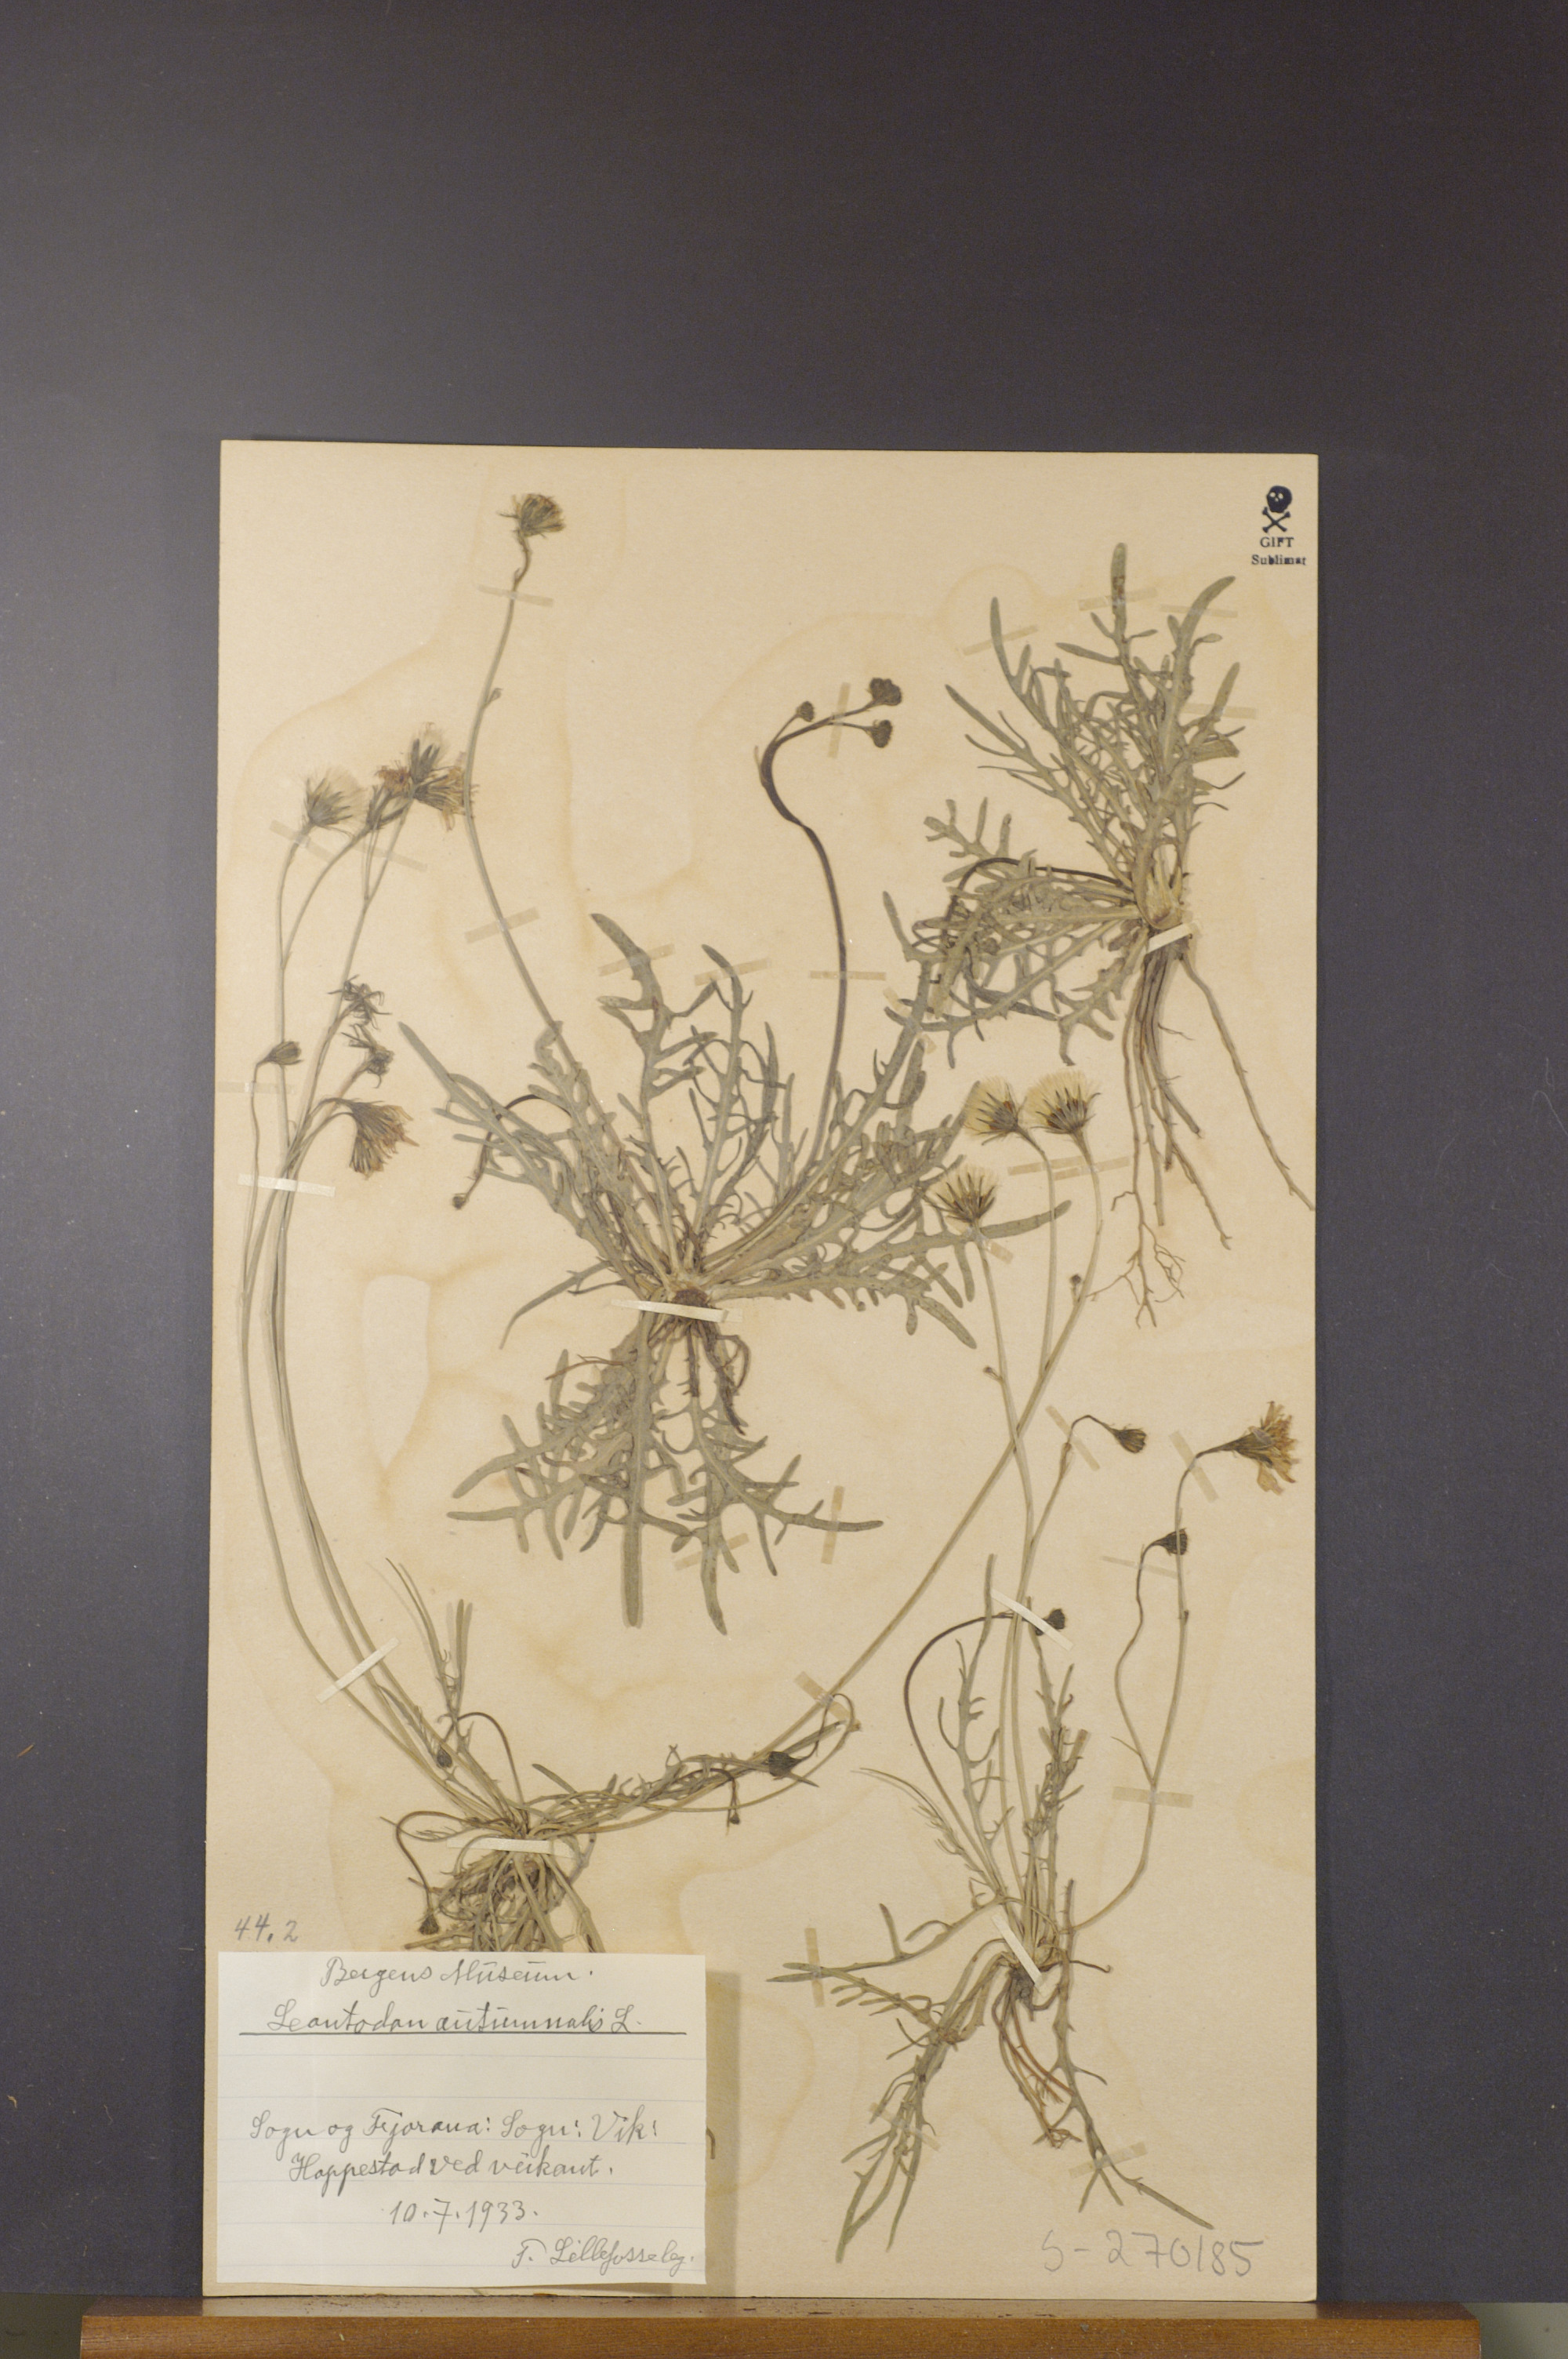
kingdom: Plantae
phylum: Tracheophyta
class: Magnoliopsida
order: Asterales
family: Asteraceae
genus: Scorzoneroides
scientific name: Scorzoneroides autumnalis
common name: Autumn hawkbit
